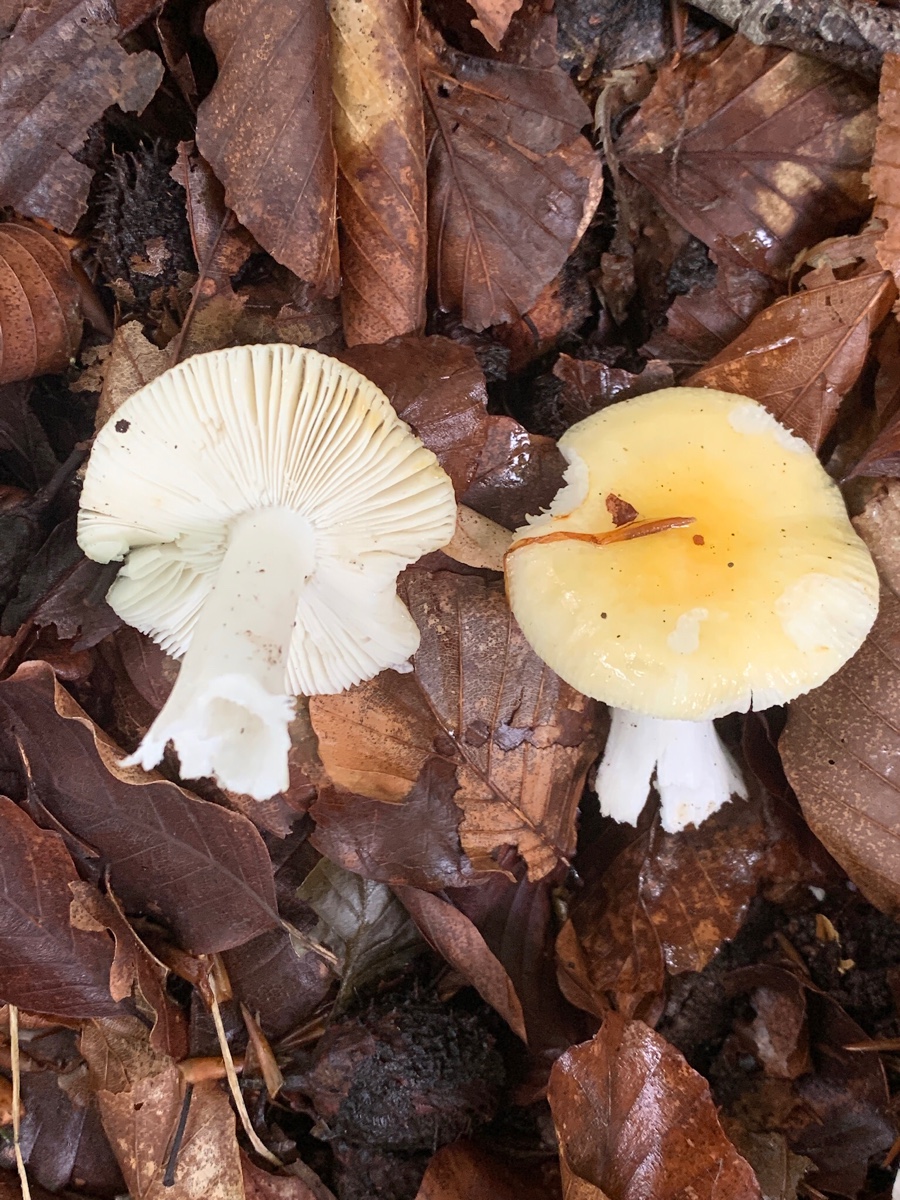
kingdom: Fungi
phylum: Basidiomycota
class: Agaricomycetes
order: Russulales
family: Russulaceae
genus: Russula
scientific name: Russula solaris
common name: sol-skørhat
